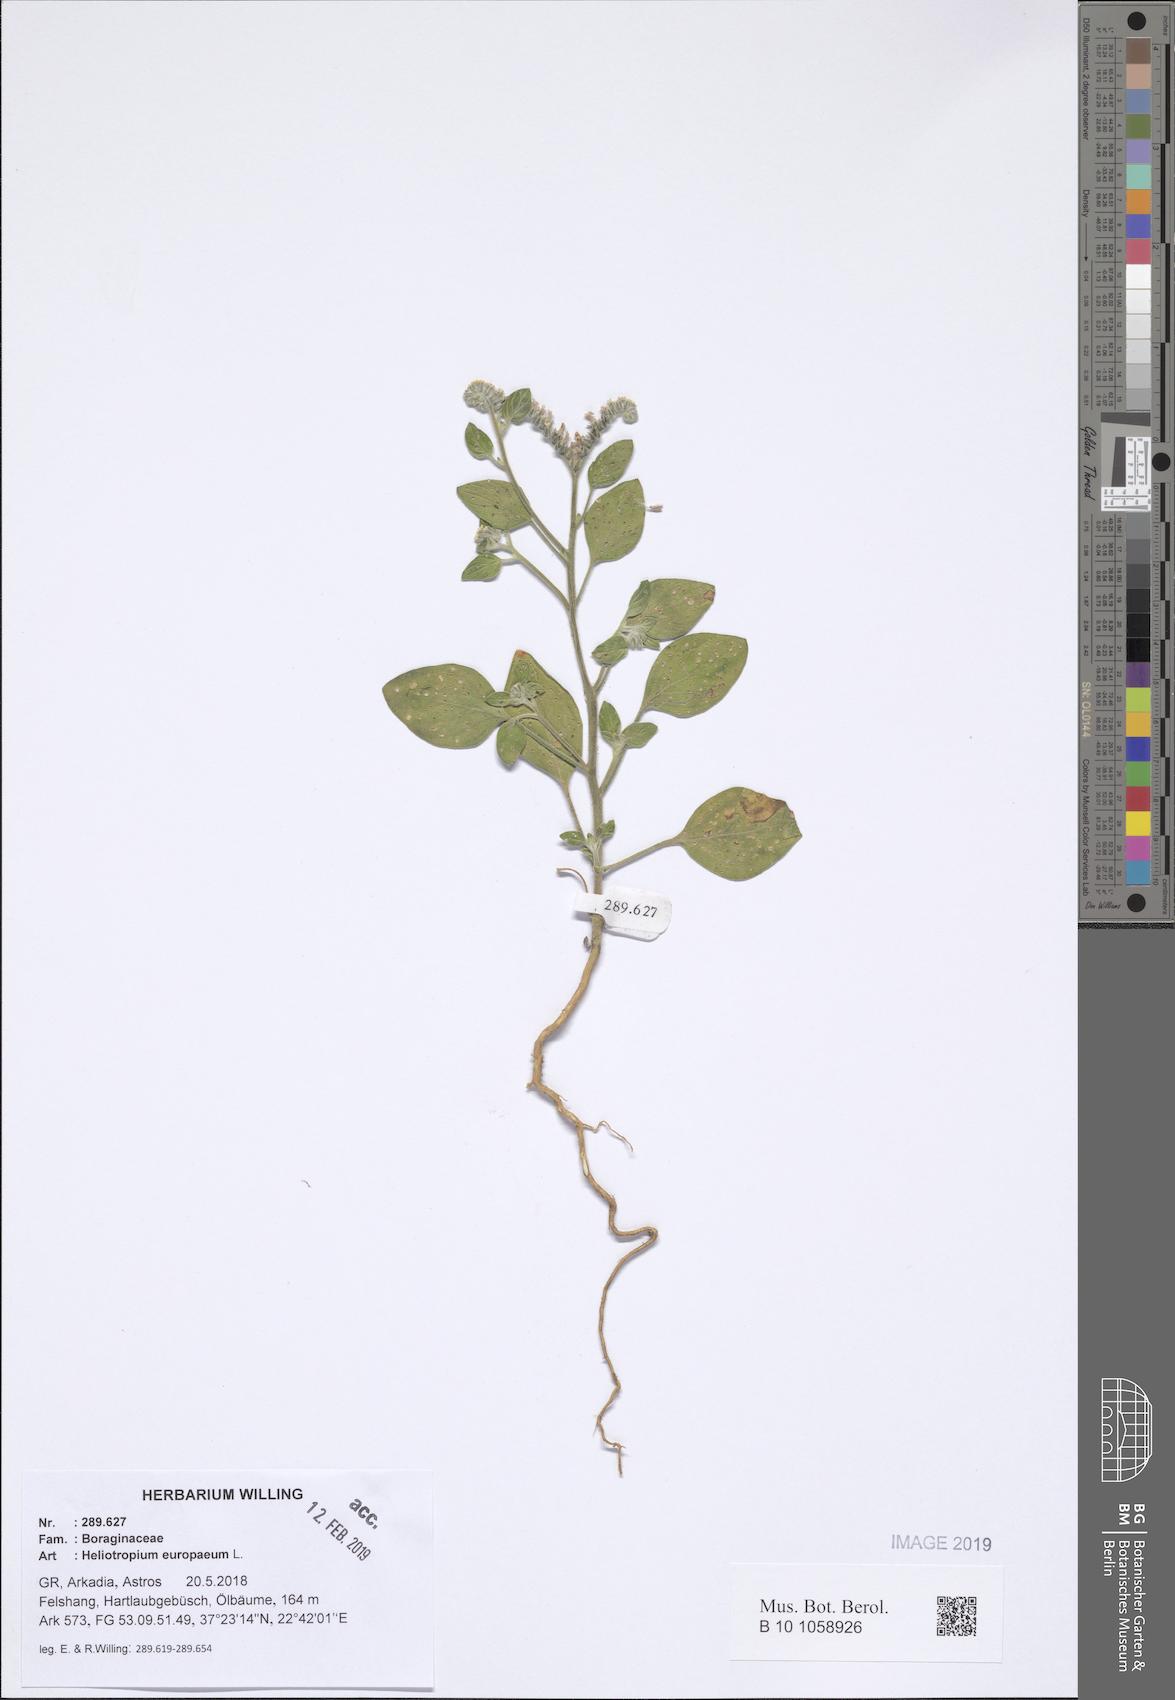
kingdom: Plantae
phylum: Tracheophyta
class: Magnoliopsida
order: Boraginales
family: Heliotropiaceae
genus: Heliotropium
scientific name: Heliotropium europaeum
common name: European heliotrope
